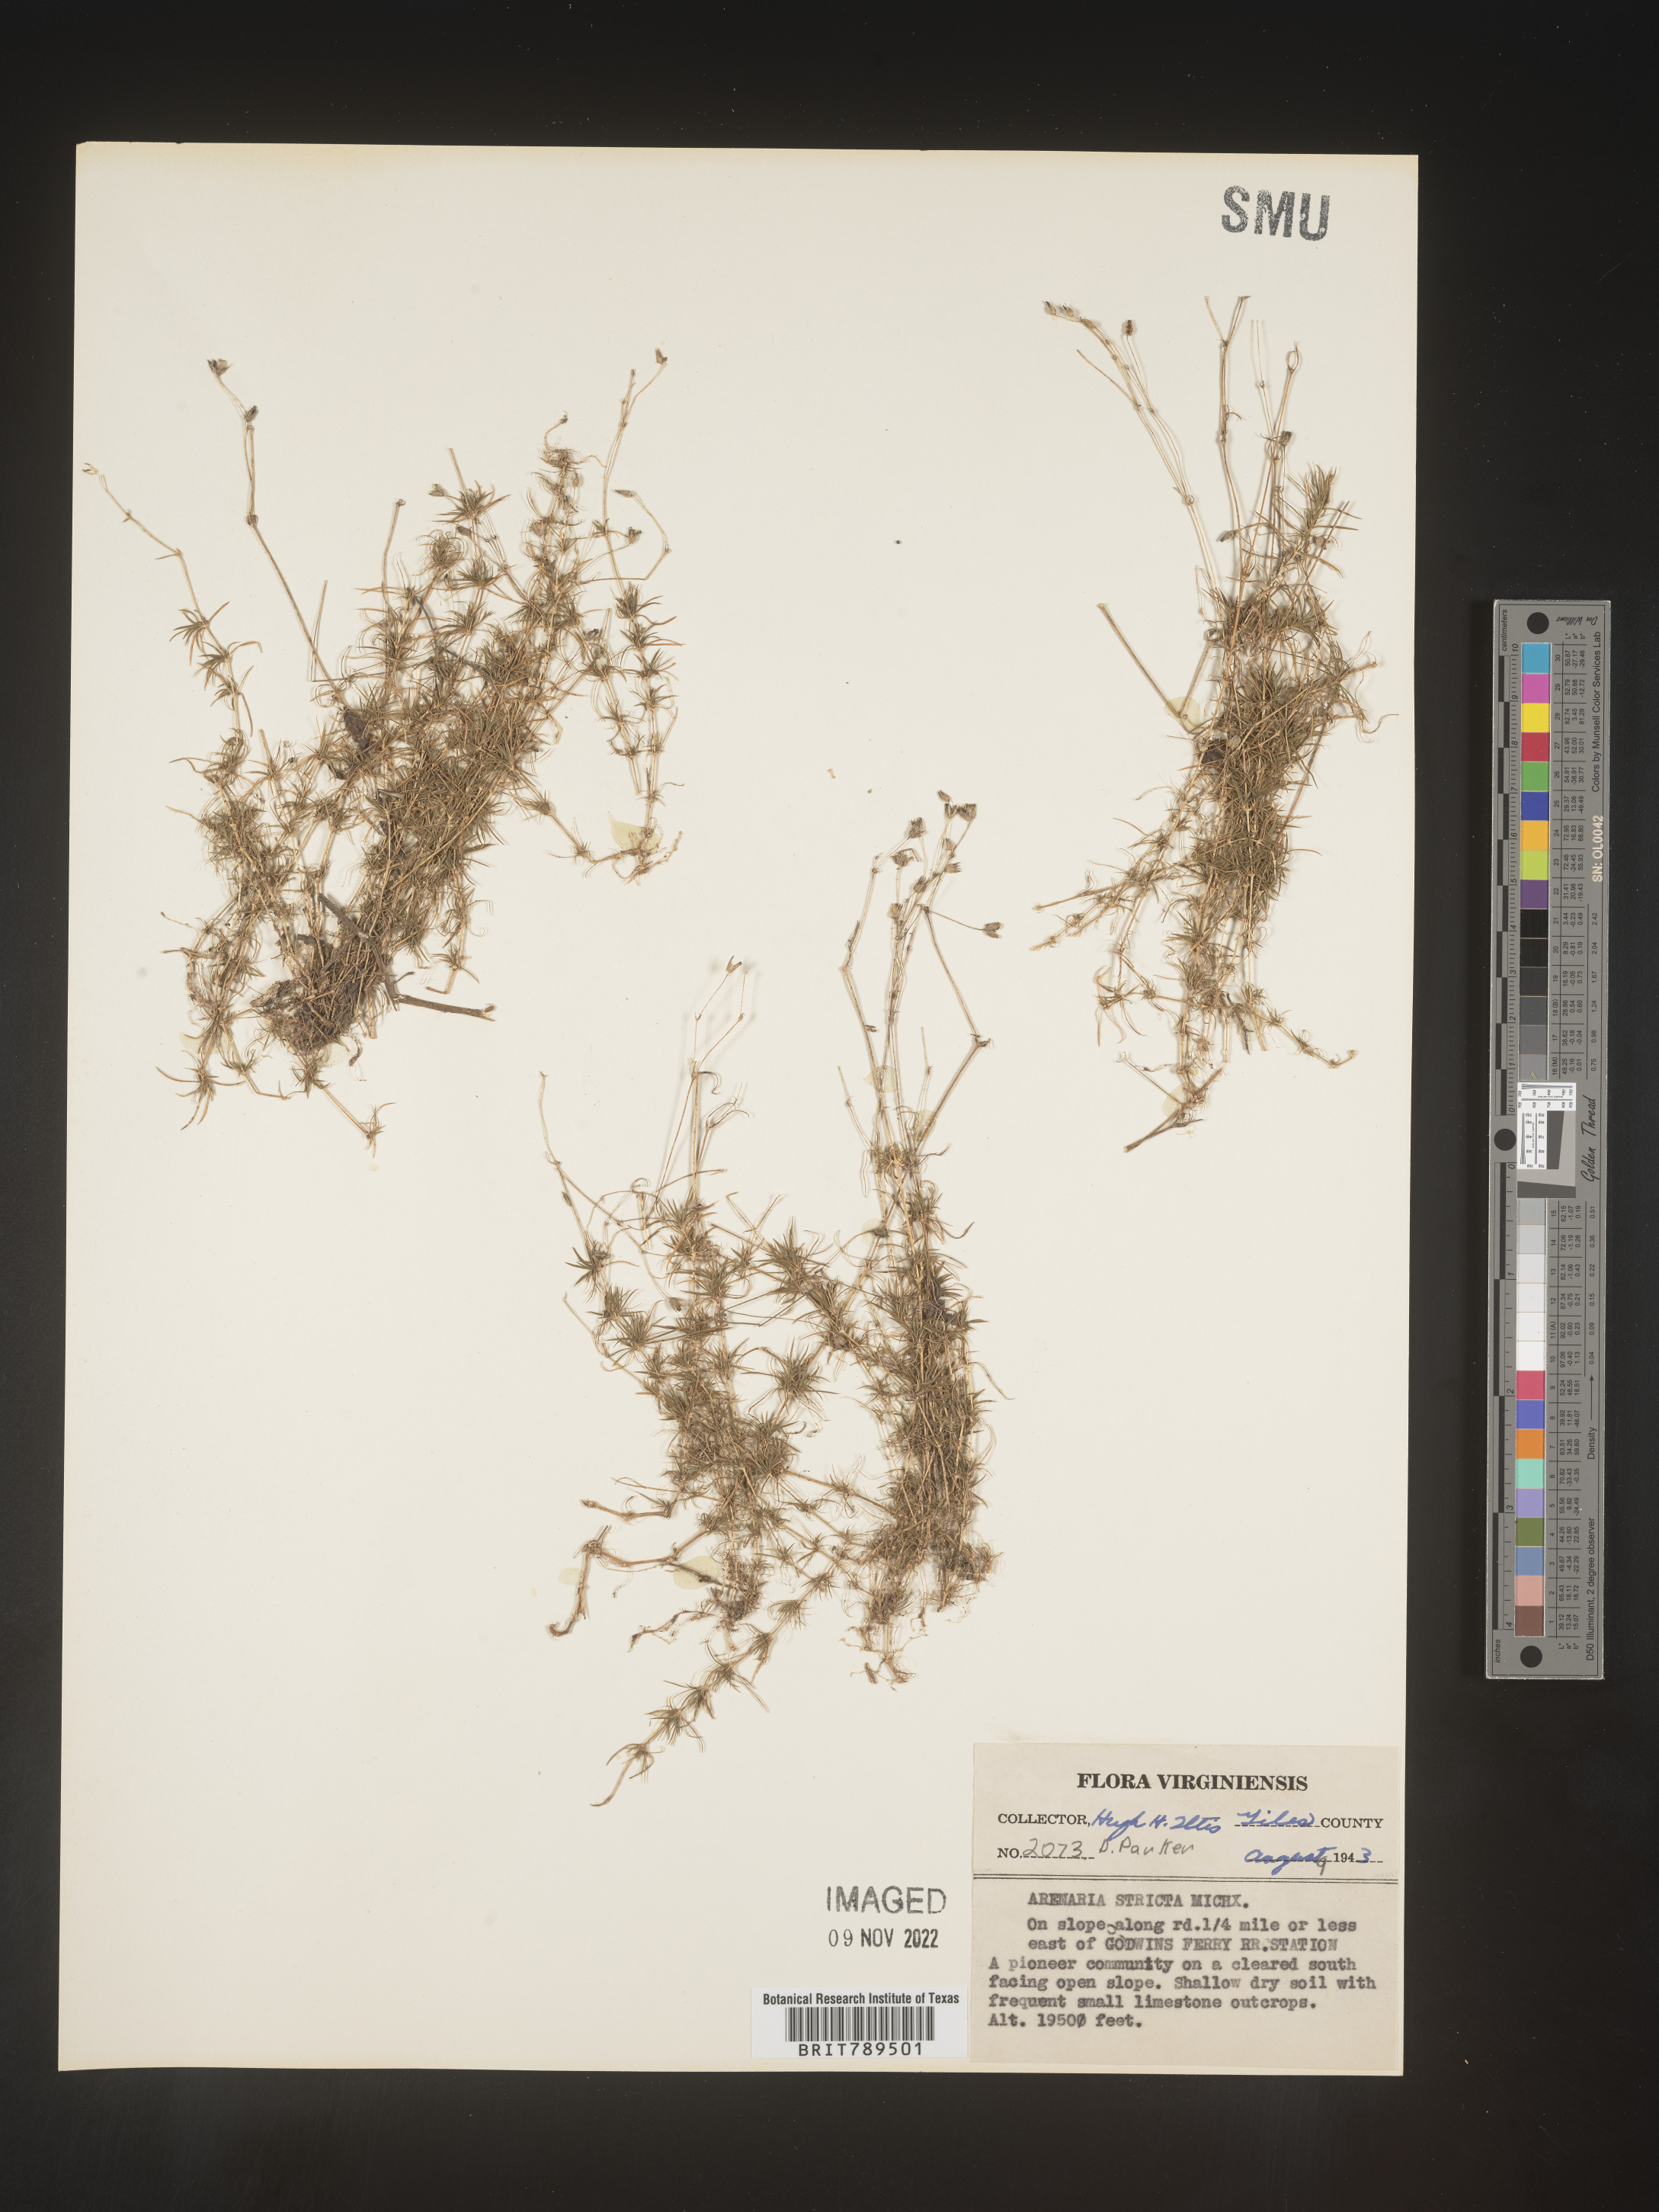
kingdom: Plantae
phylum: Tracheophyta
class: Magnoliopsida
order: Caryophyllales
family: Caryophyllaceae
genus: Sabulina
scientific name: Sabulina michauxii
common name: Michaux's stitchwort
